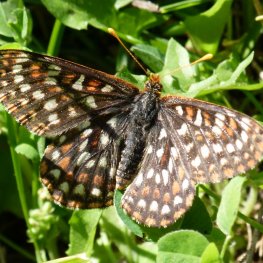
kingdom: Animalia
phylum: Arthropoda
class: Insecta
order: Lepidoptera
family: Nymphalidae
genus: Occidryas
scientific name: Occidryas chalcedona
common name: Chalcedon Checkerspot
